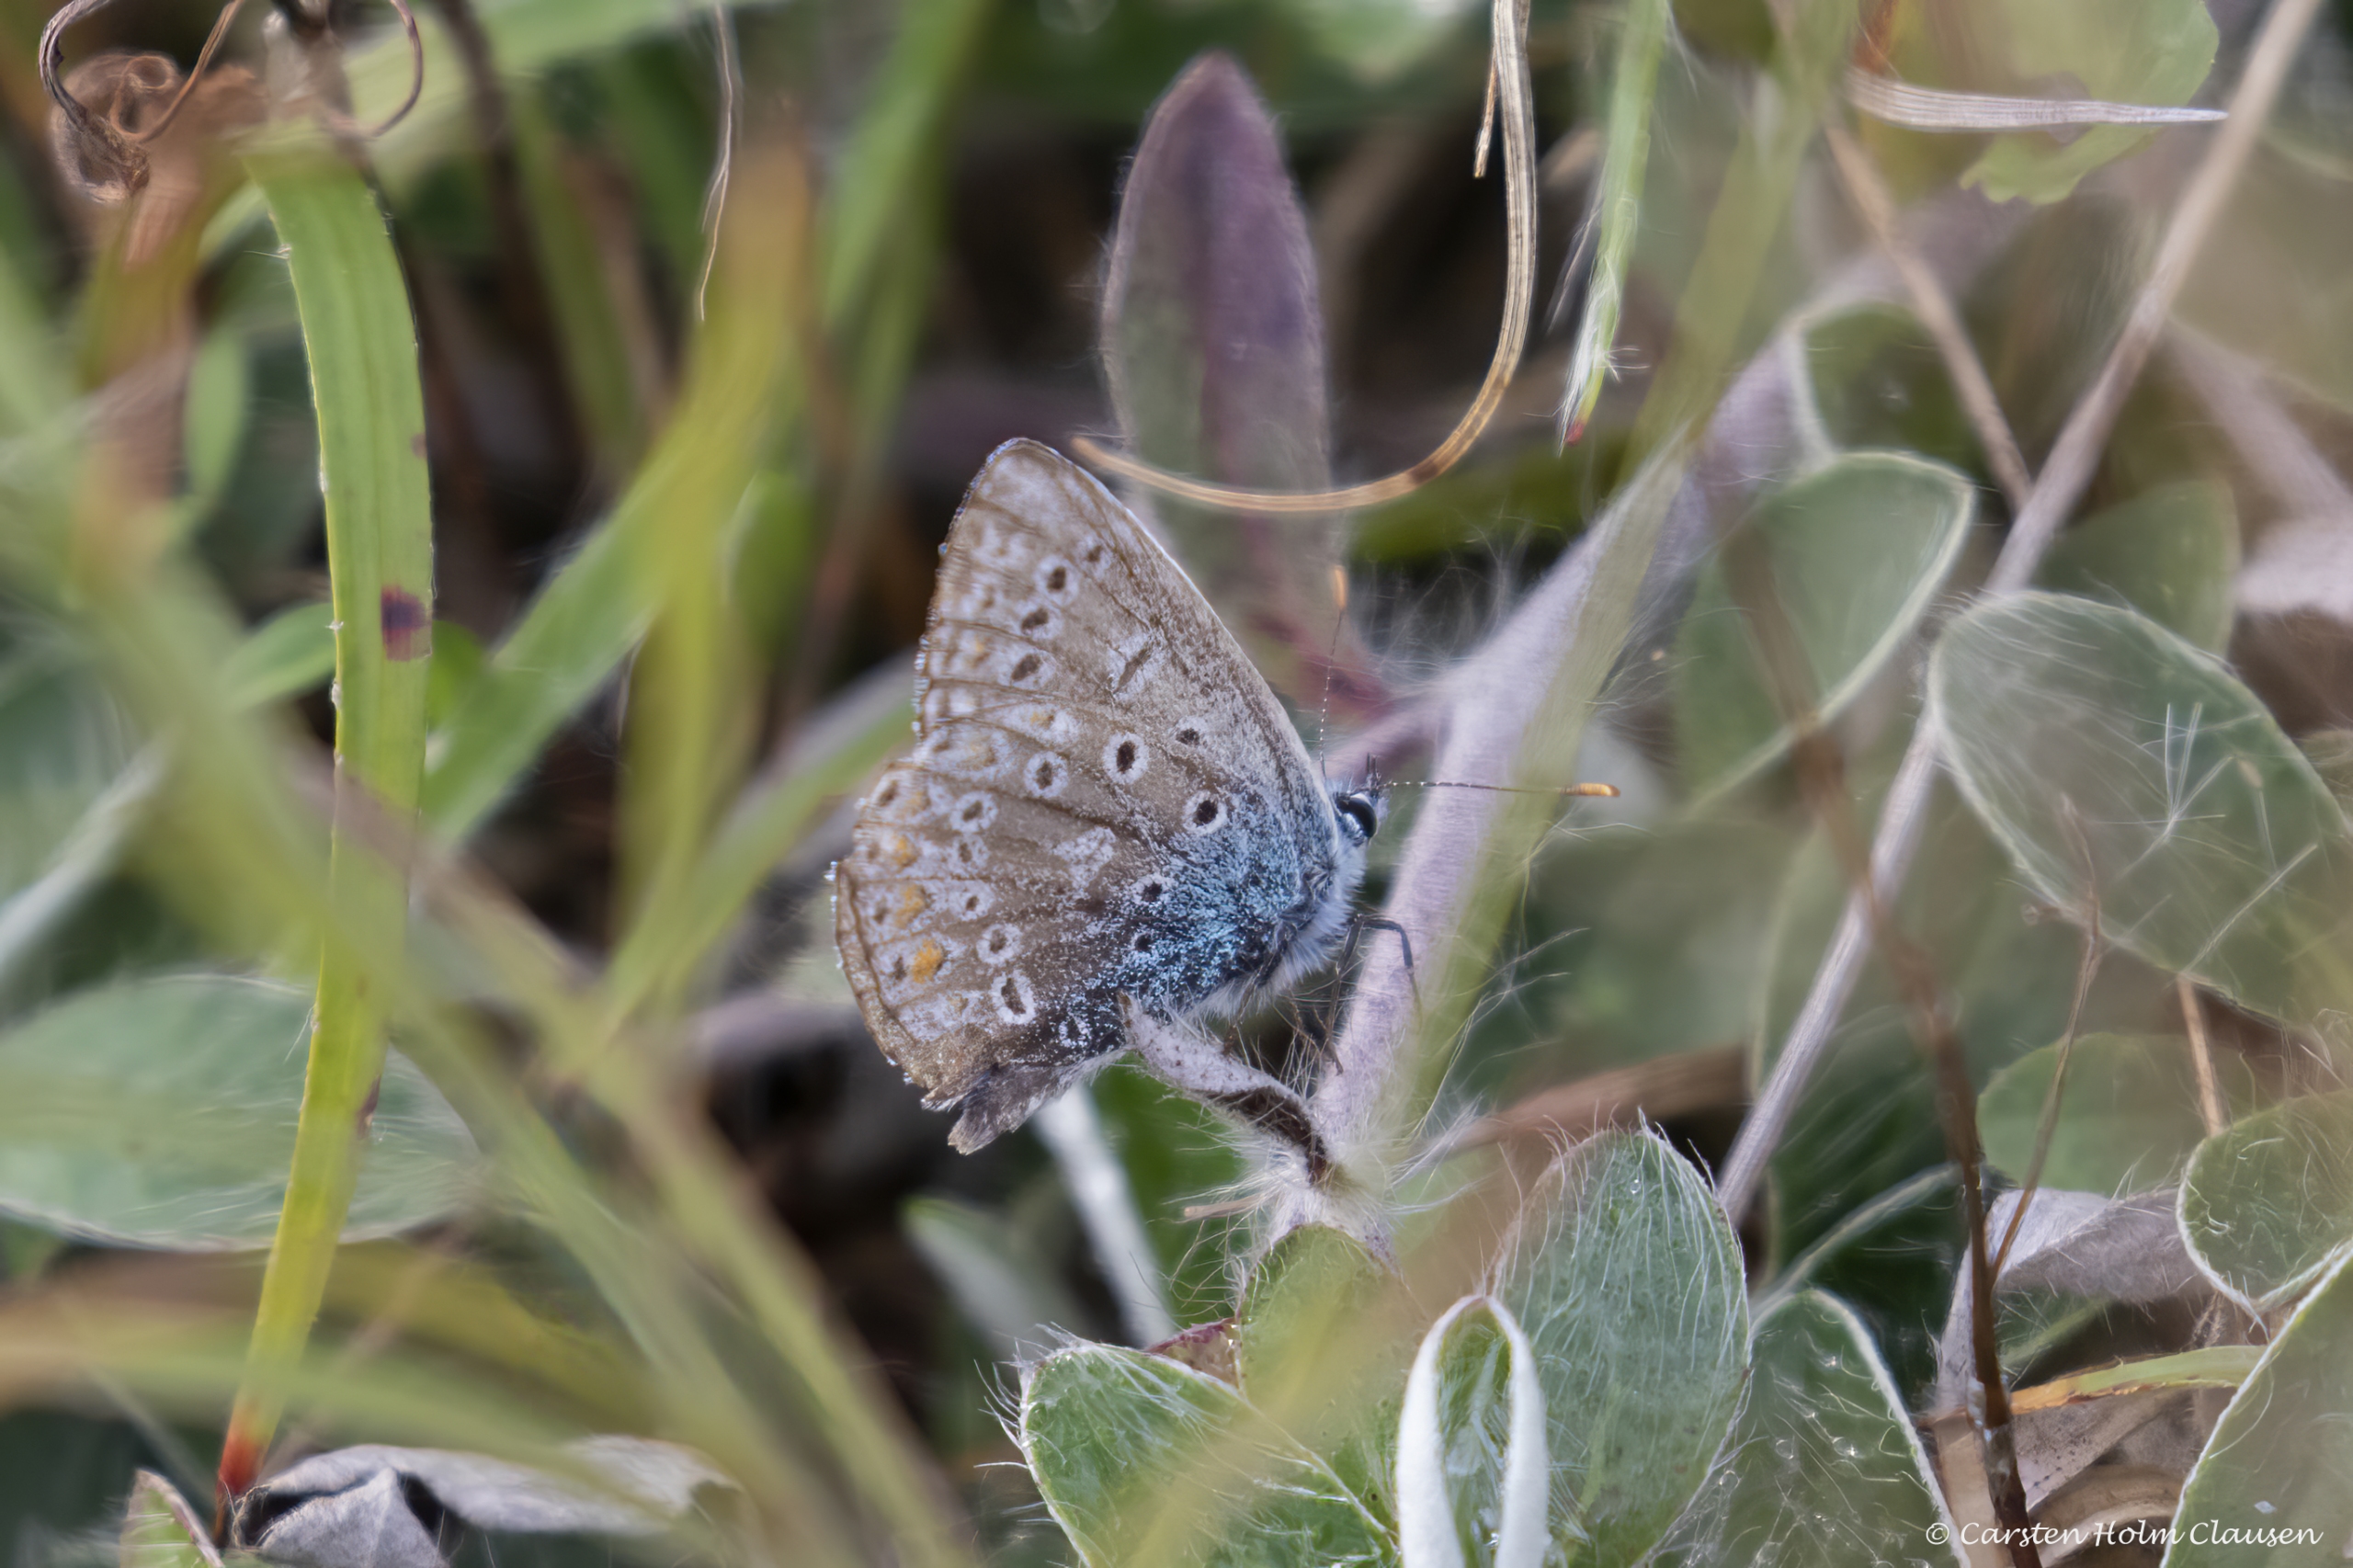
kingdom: Animalia
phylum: Arthropoda
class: Insecta
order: Lepidoptera
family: Lycaenidae
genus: Polyommatus
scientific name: Polyommatus icarus
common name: Almindelig blåfugl
